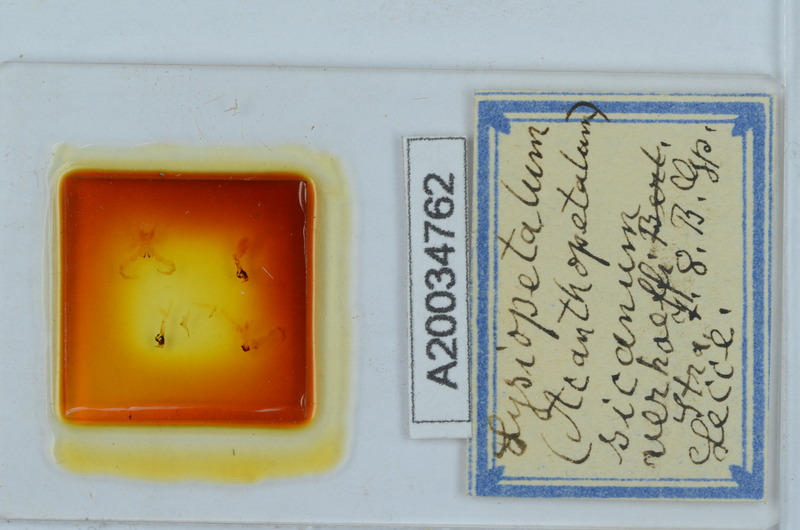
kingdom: Animalia
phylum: Arthropoda
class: Diplopoda
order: Callipodida
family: Schizopetalidae
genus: Acanthopetalum
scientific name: Acanthopetalum richii
